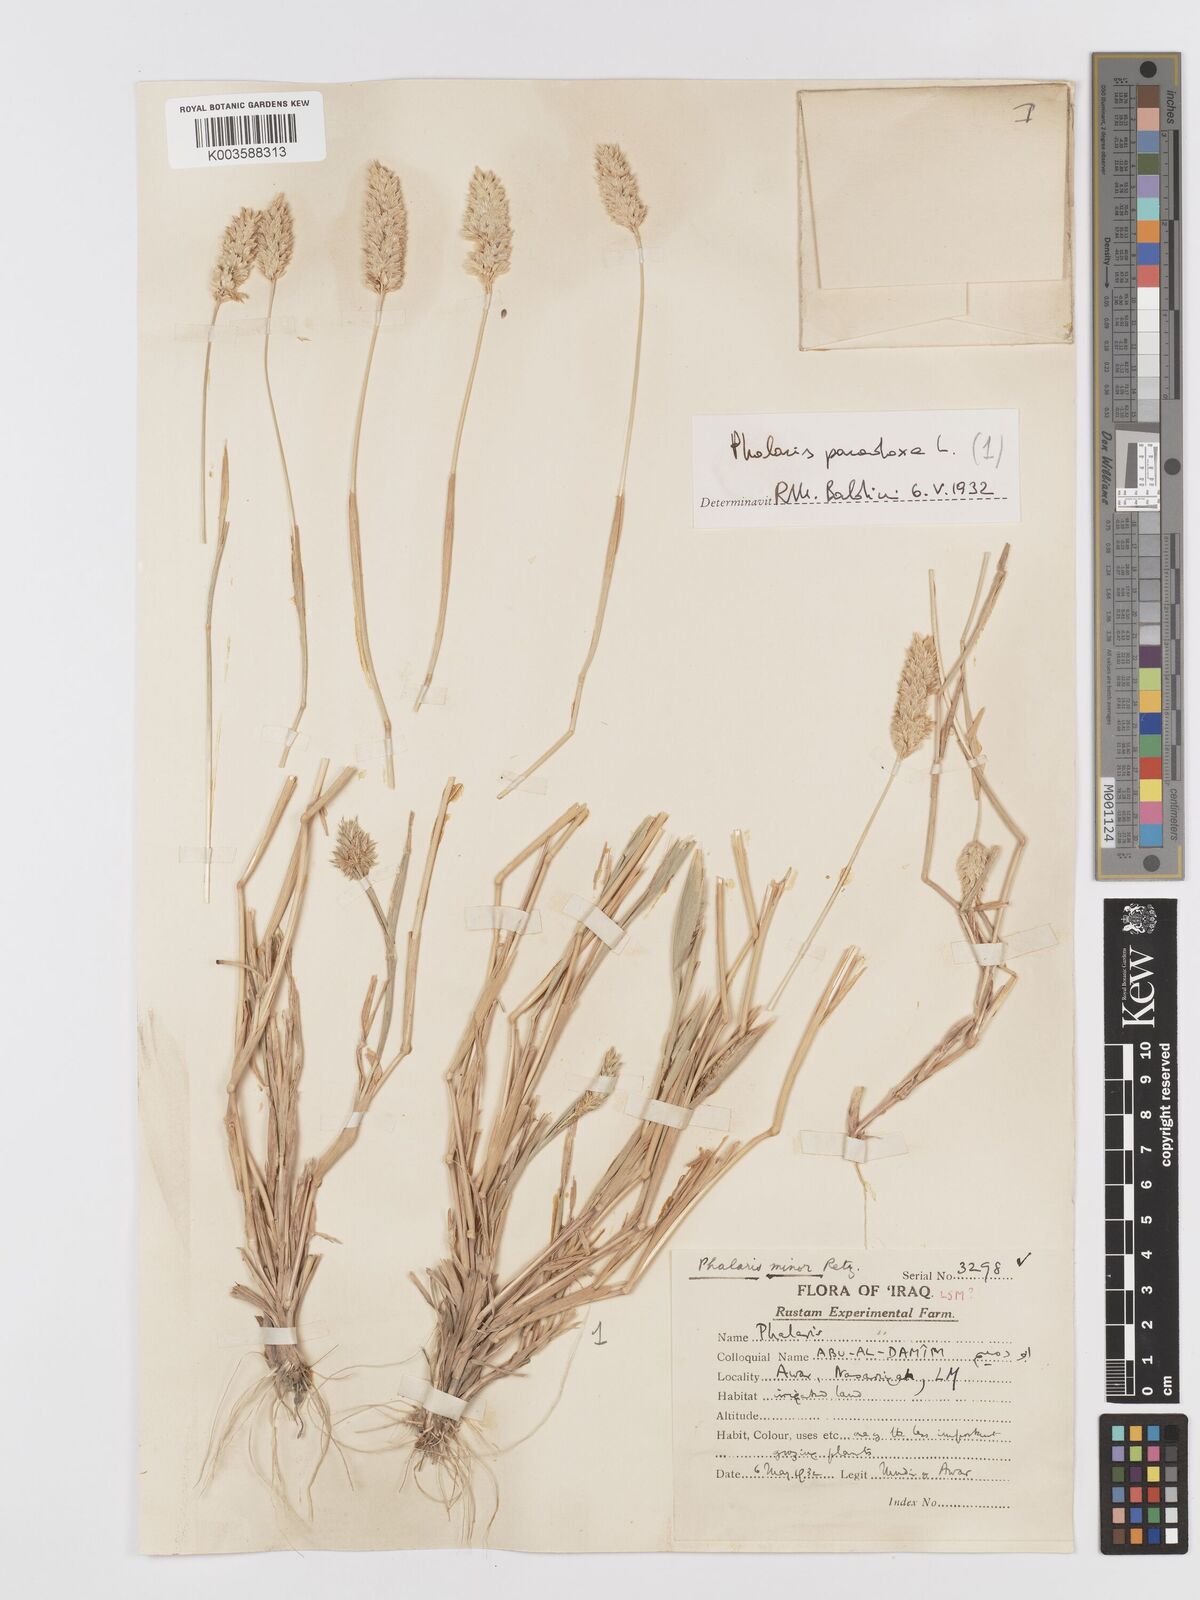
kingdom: Plantae
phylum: Tracheophyta
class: Liliopsida
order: Poales
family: Poaceae
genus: Phalaris
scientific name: Phalaris minor
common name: Littleseed canarygrass
